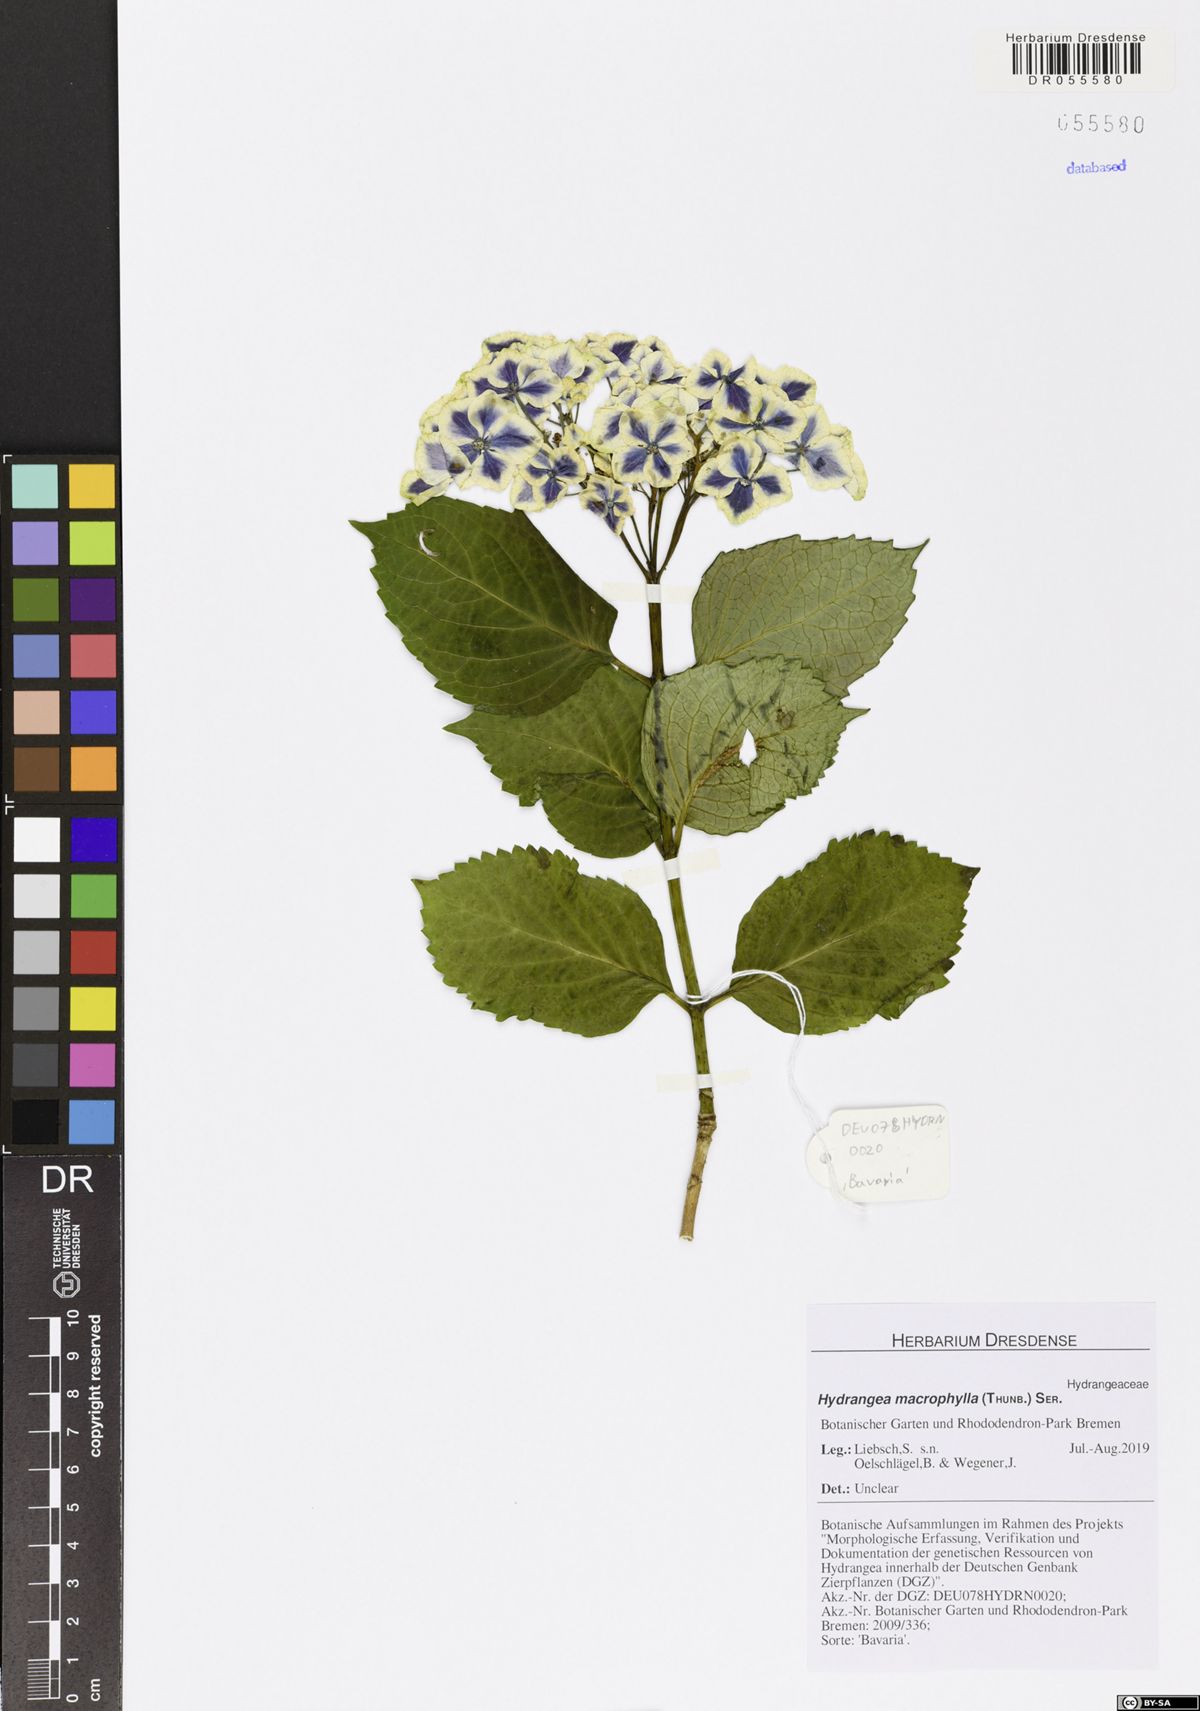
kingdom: Plantae
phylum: Tracheophyta
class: Magnoliopsida
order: Cornales
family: Hydrangeaceae
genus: Hydrangea
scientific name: Hydrangea macrophylla
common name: Hydrangea
